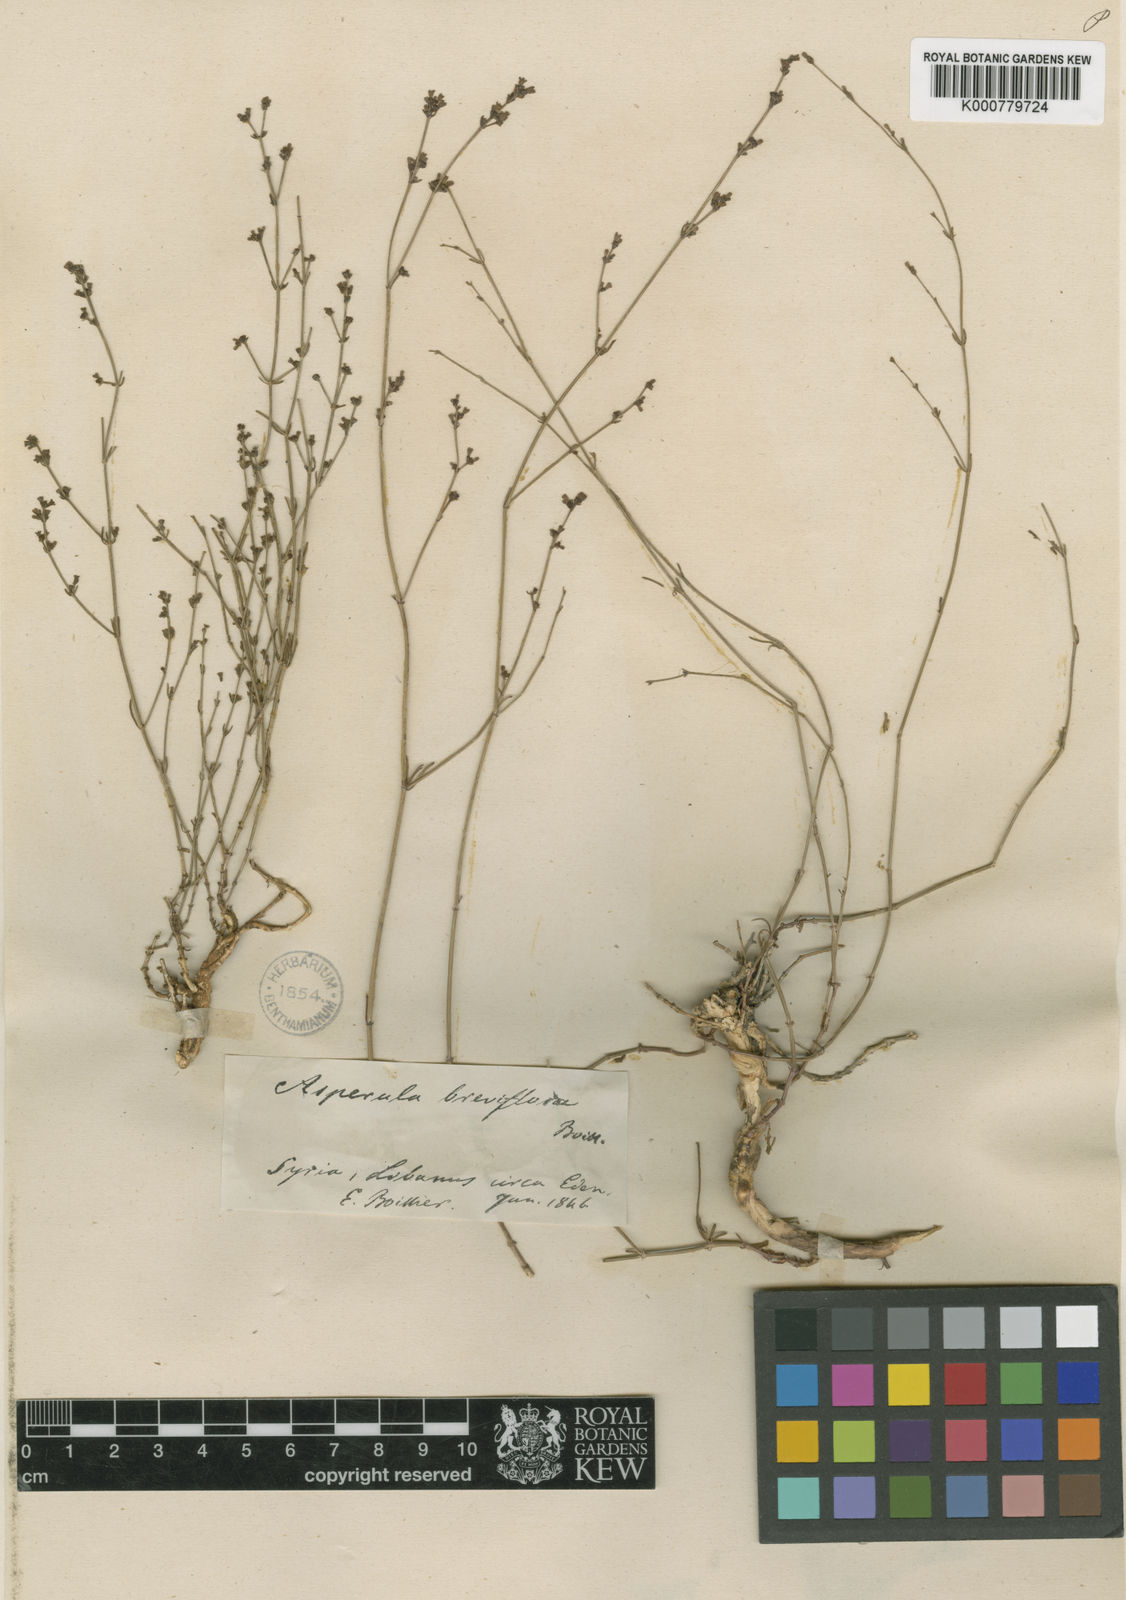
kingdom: Plantae
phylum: Tracheophyta
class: Magnoliopsida
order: Gentianales
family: Rubiaceae
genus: Cynanchica
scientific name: Cynanchica breviflora
